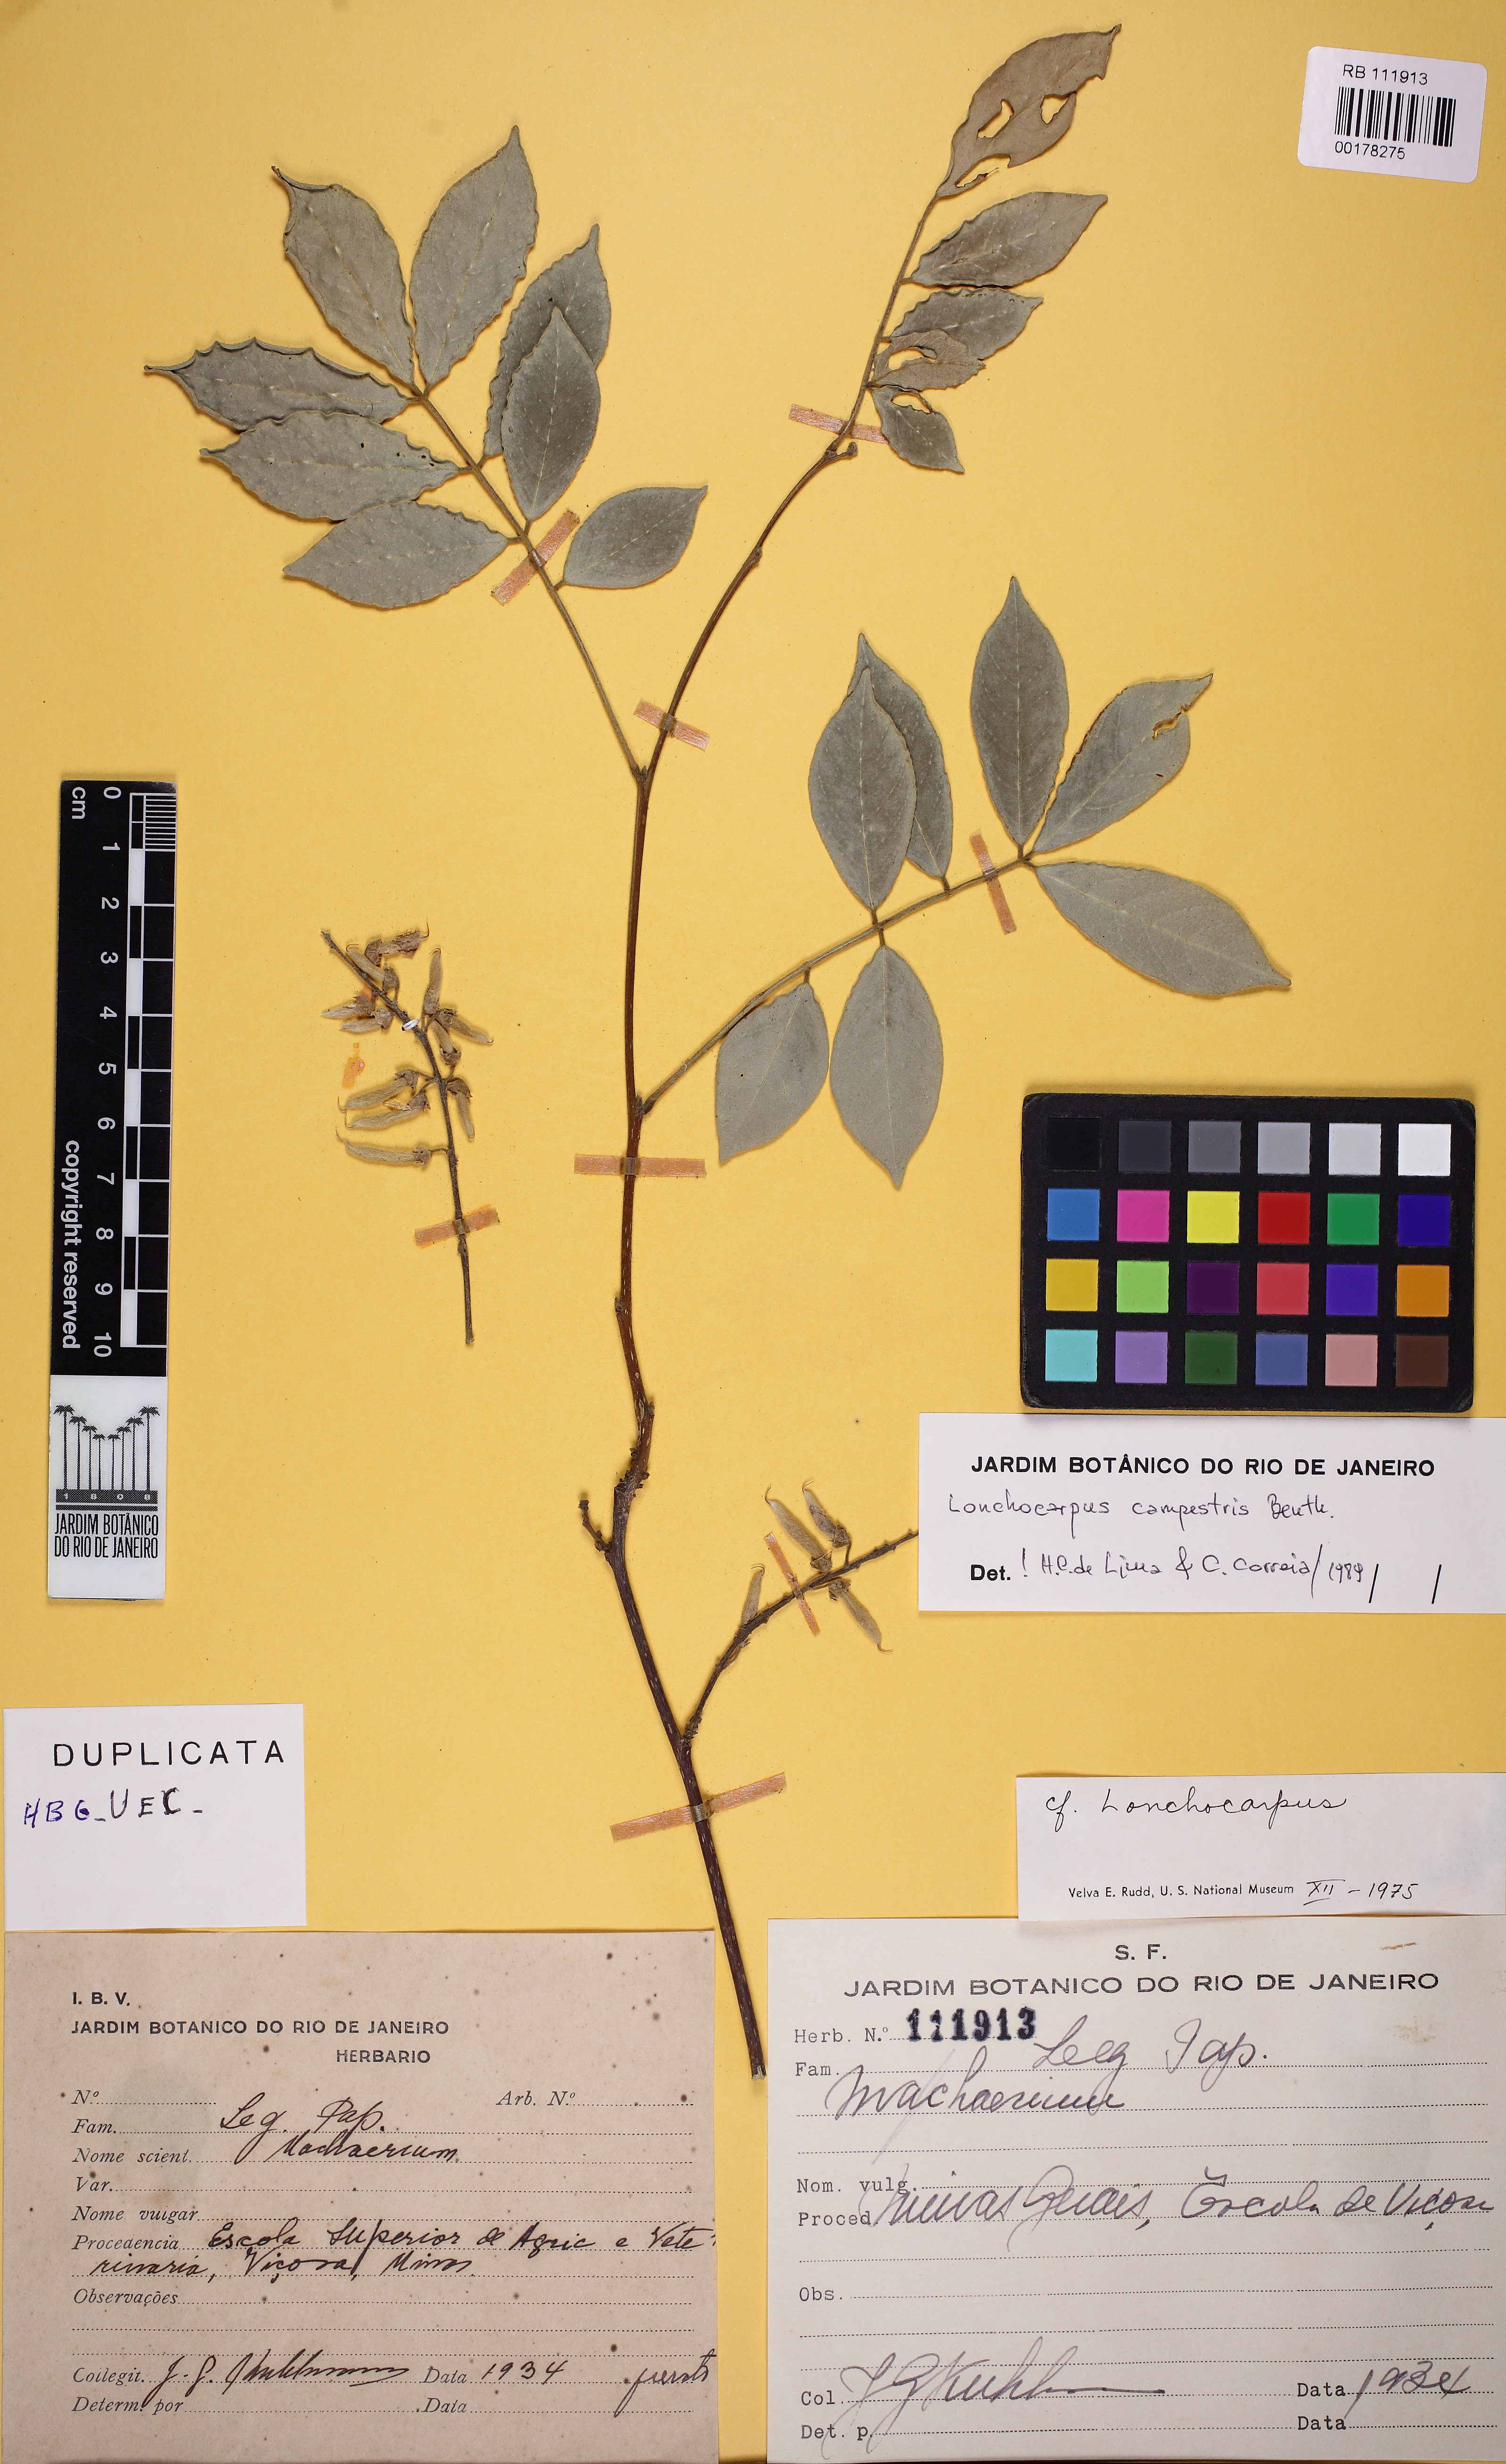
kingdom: Plantae
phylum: Tracheophyta
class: Magnoliopsida
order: Fabales
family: Fabaceae
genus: Muellera
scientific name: Muellera campestris
